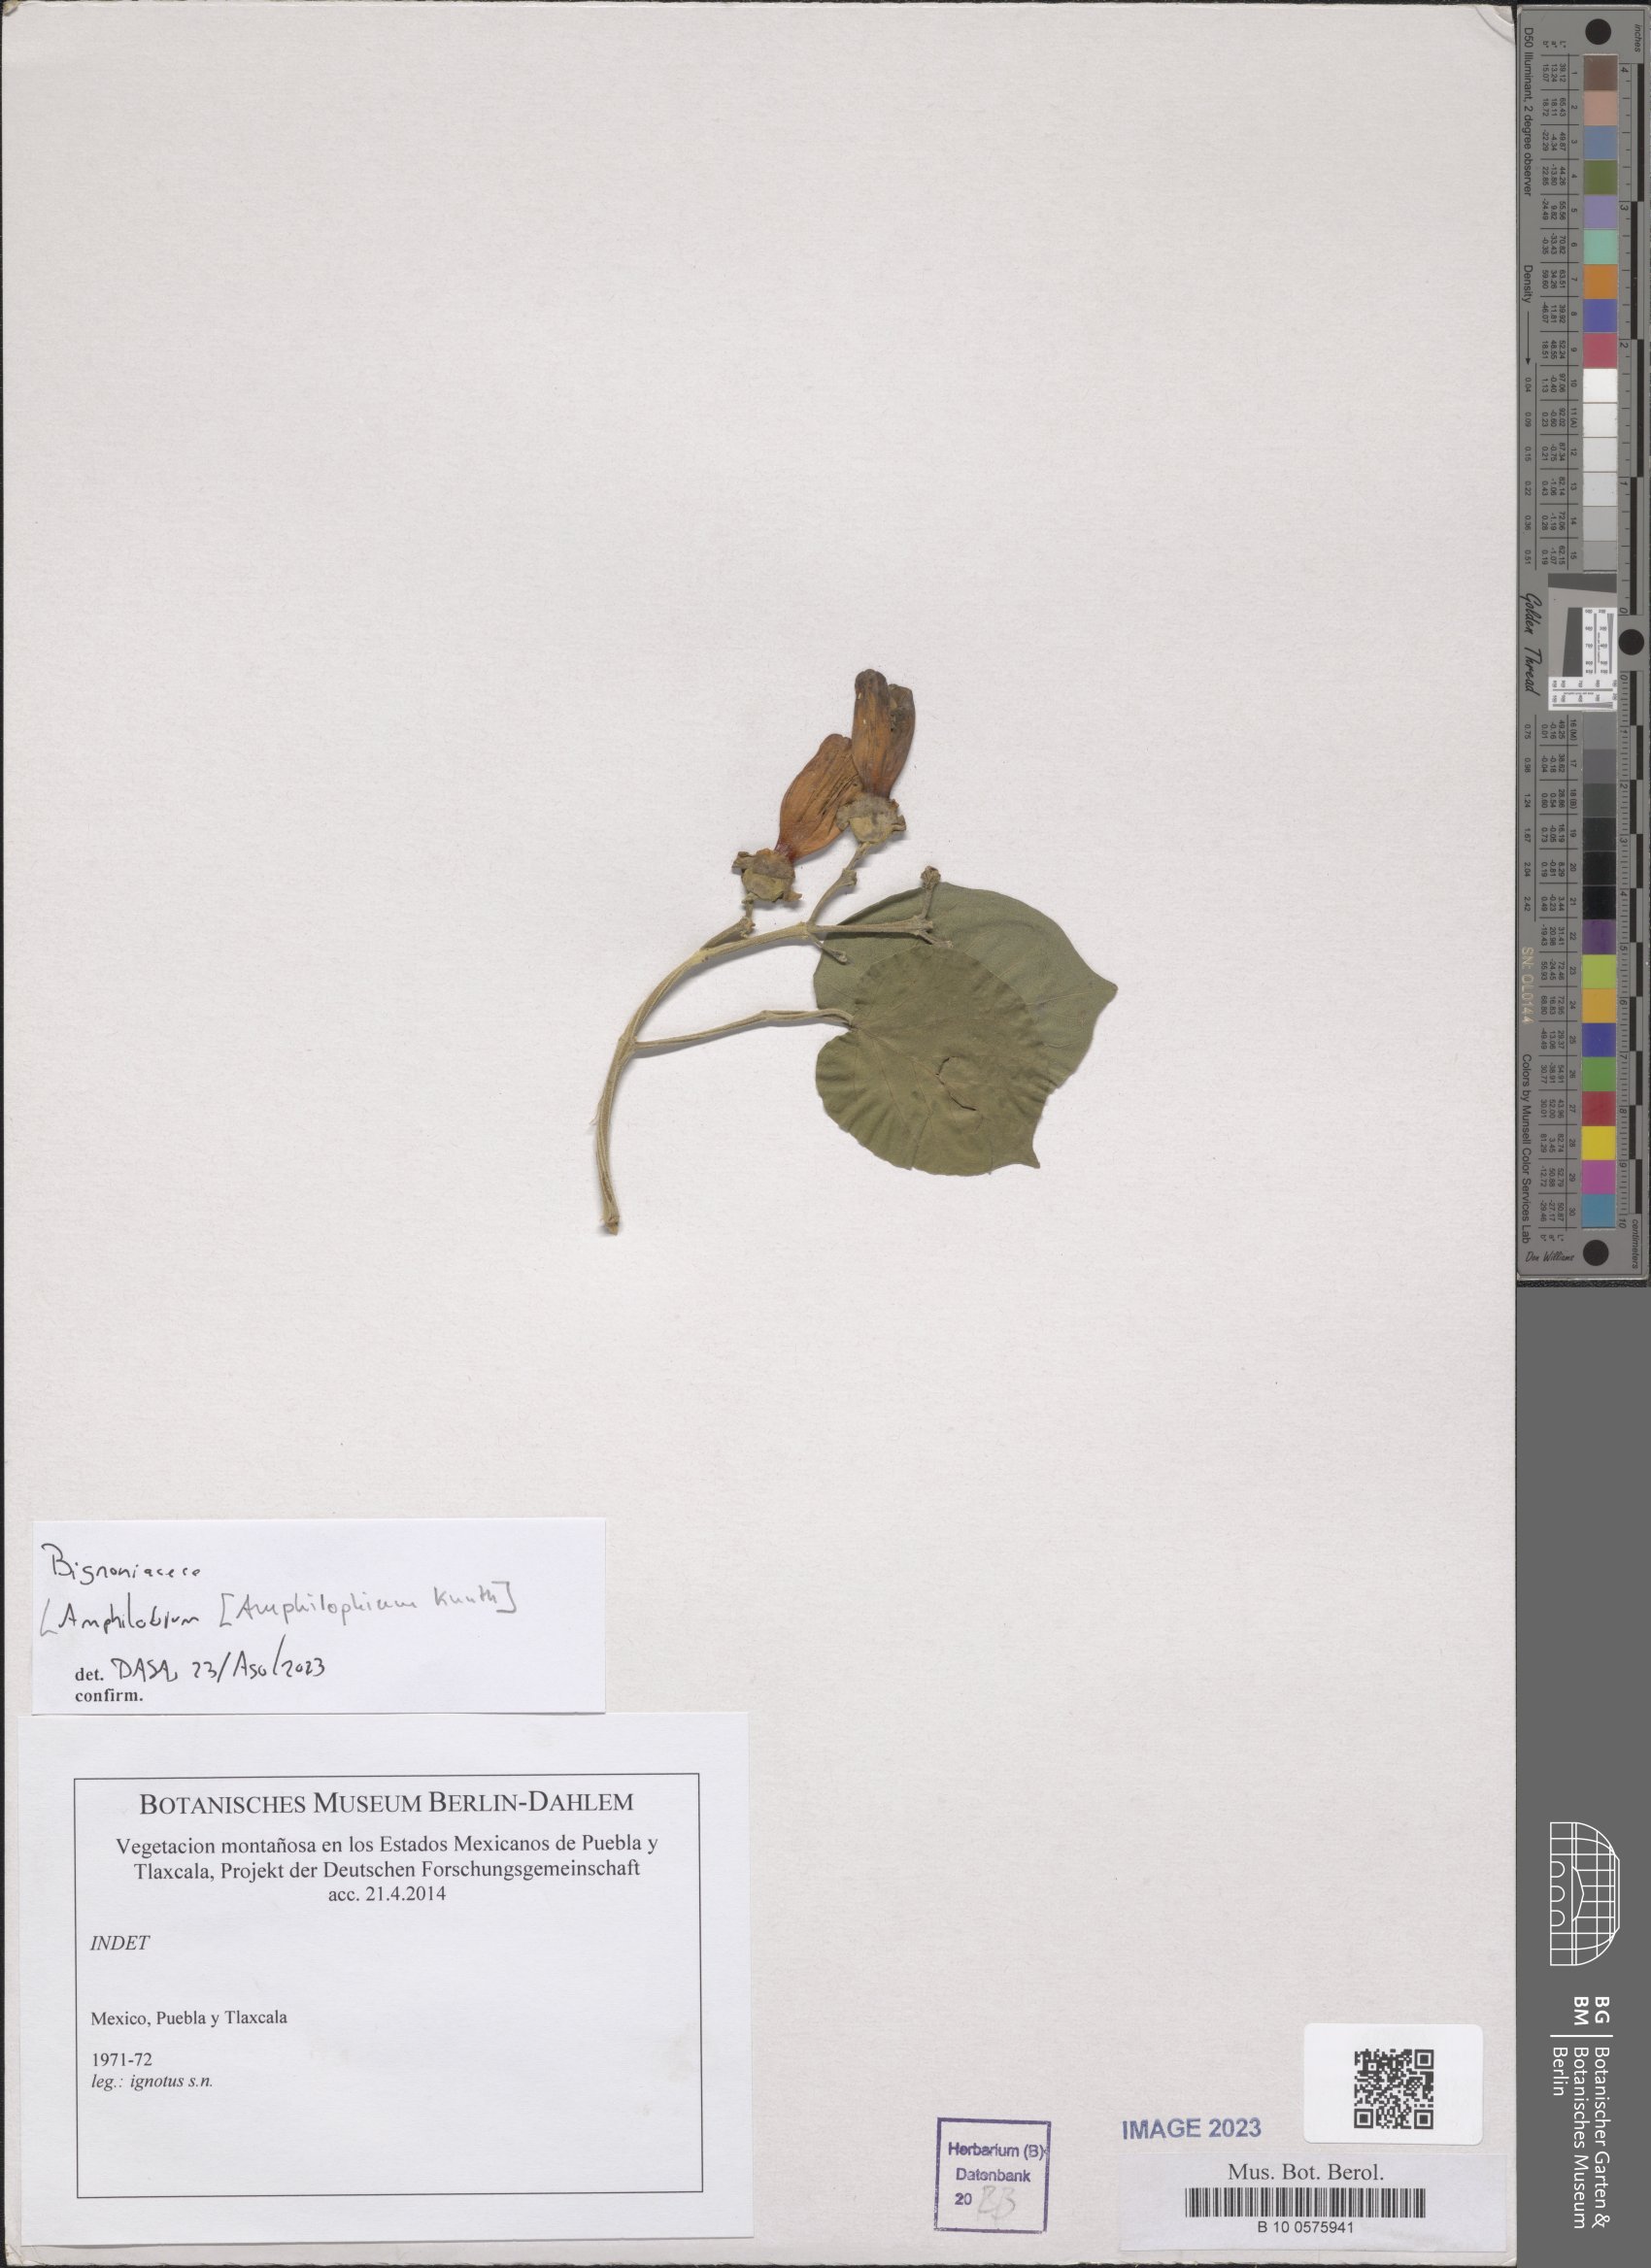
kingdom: Plantae
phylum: Tracheophyta
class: Magnoliopsida
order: Lamiales
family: Bignoniaceae
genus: Amphilophium
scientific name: Amphilophium
